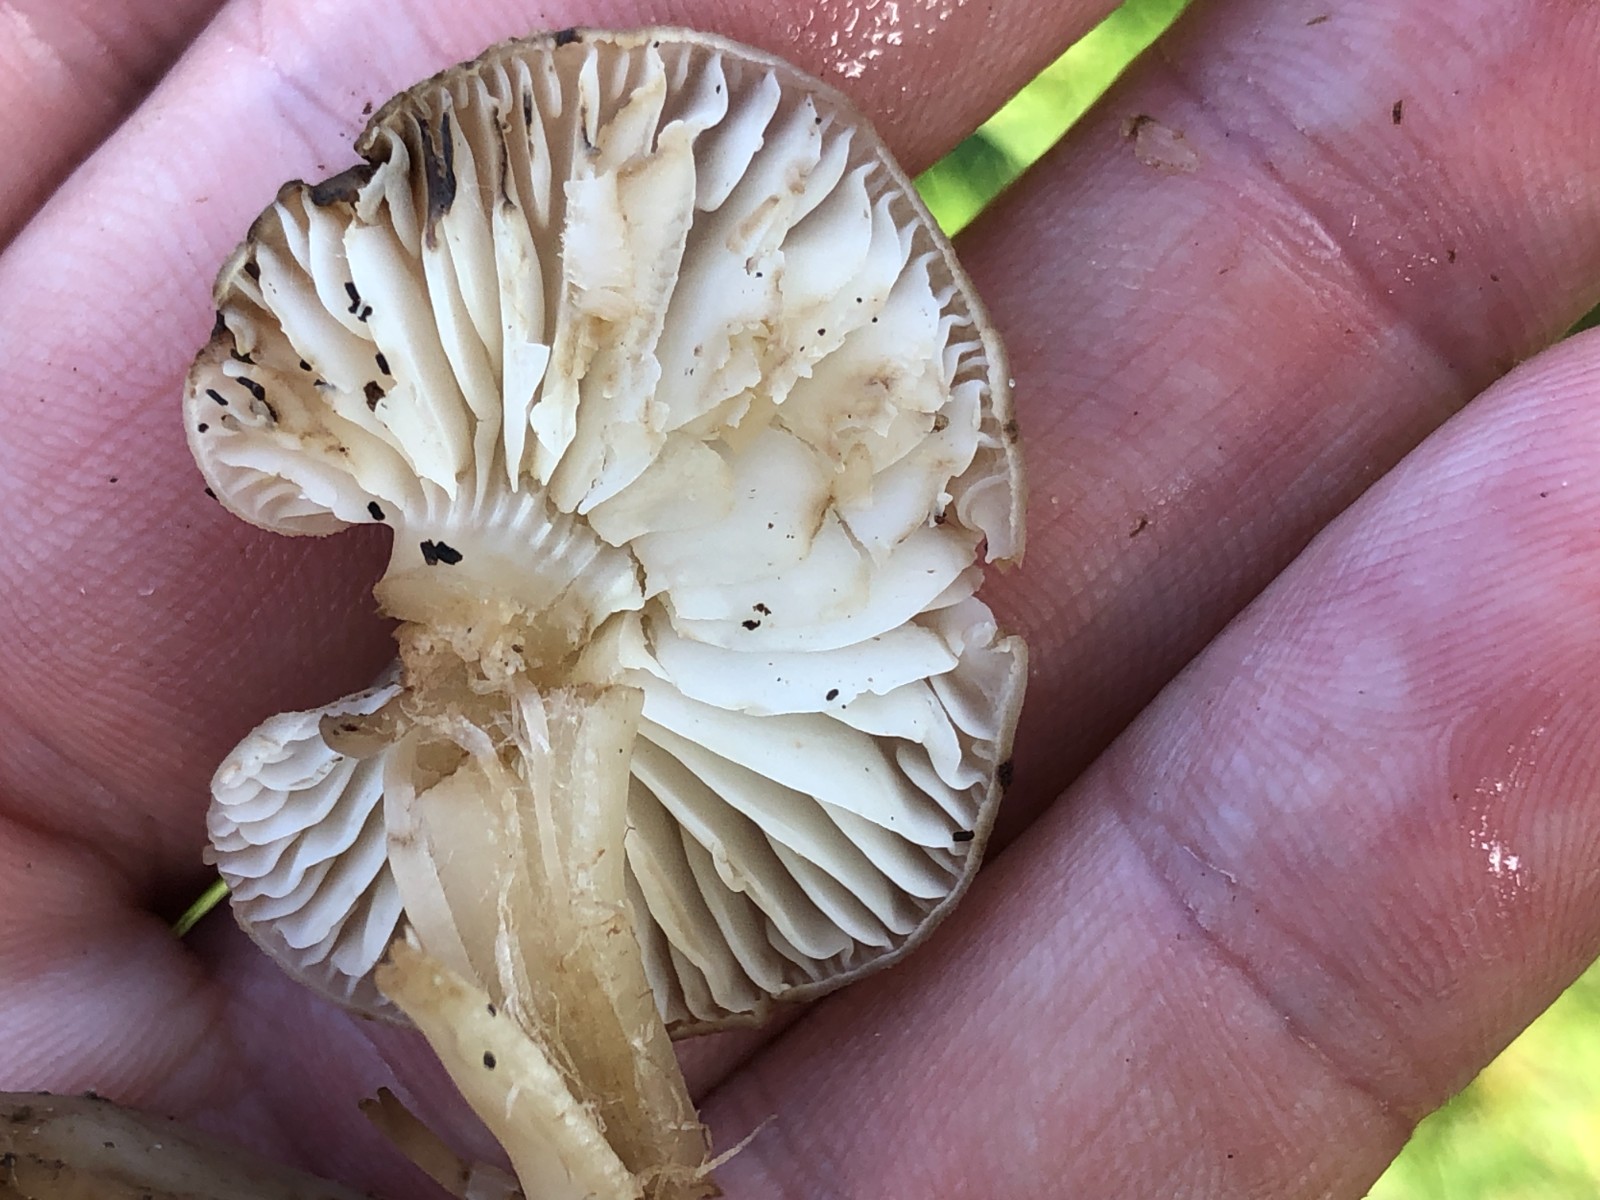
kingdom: Fungi
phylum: Basidiomycota
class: Agaricomycetes
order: Agaricales
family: Hygrophoraceae
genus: Hygrocybe
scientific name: Hygrocybe ingrata
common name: Jensens vokshat
